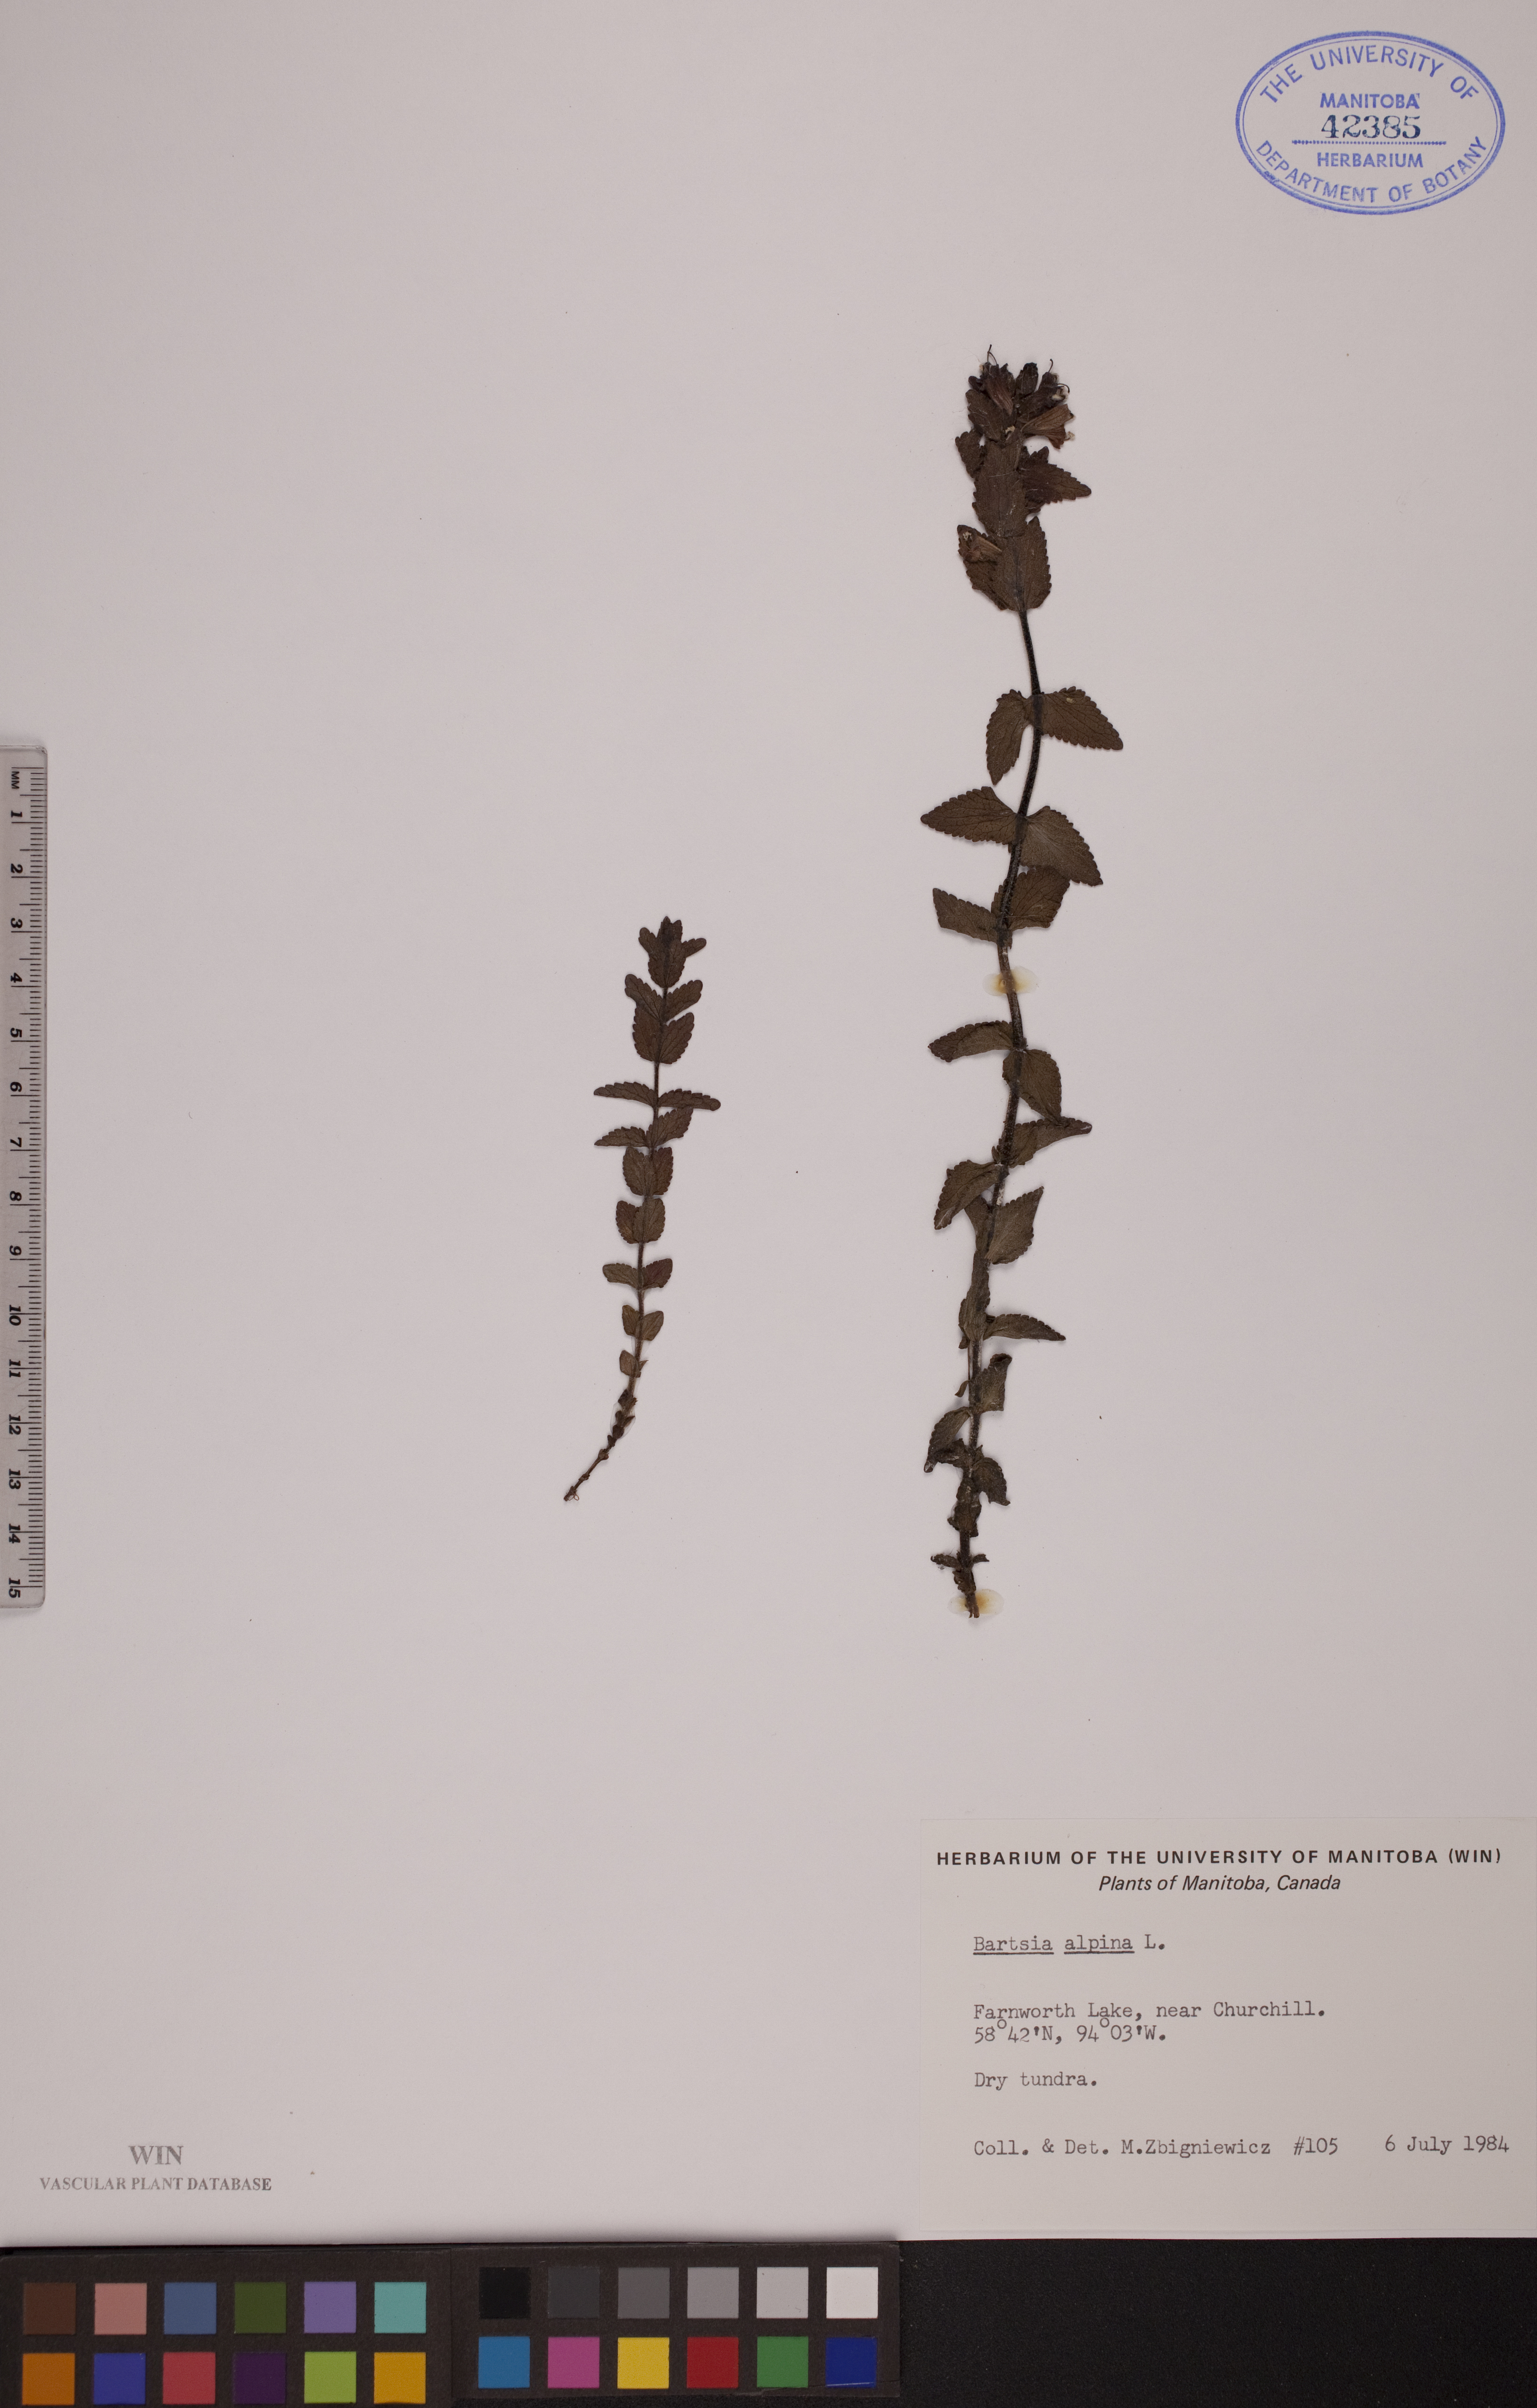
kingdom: Plantae
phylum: Tracheophyta
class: Magnoliopsida
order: Lamiales
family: Orobanchaceae
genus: Bartsia
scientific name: Bartsia alpina
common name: Alpine bartsia
